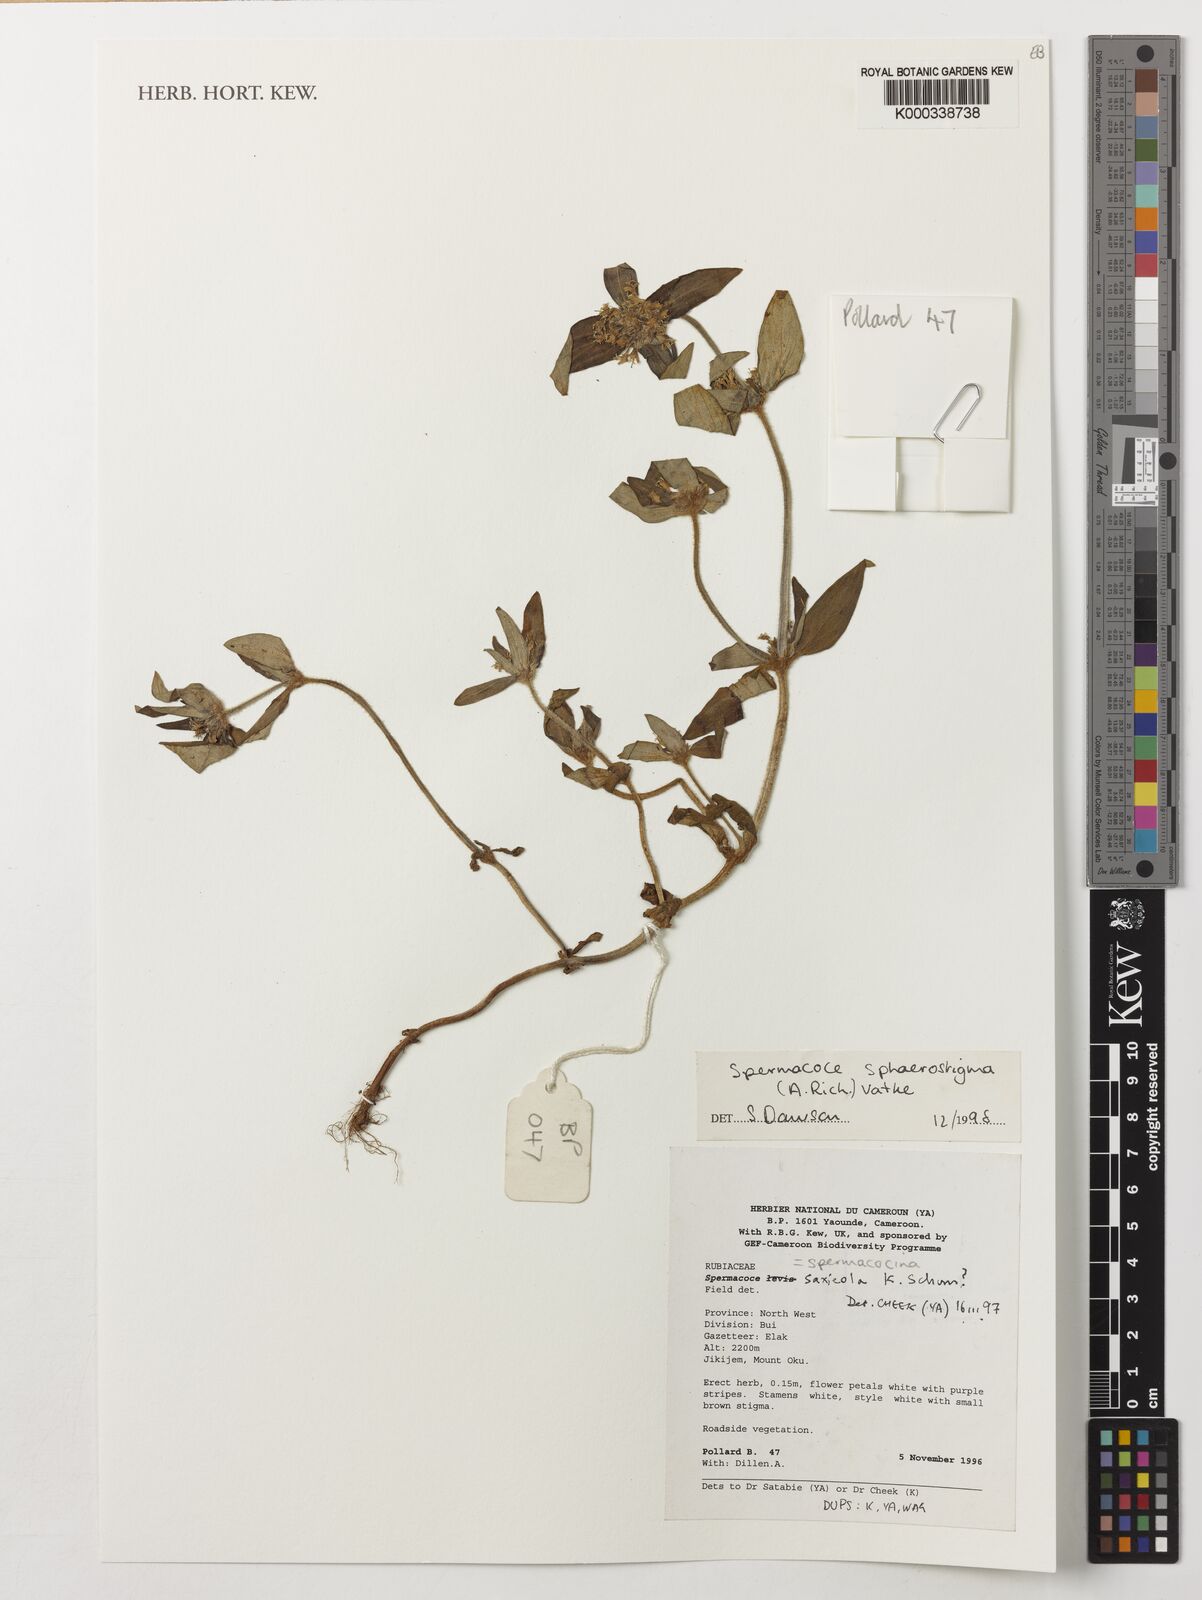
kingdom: Plantae
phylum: Tracheophyta
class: Magnoliopsida
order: Gentianales
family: Rubiaceae
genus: Spermacoce
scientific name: Spermacoce
